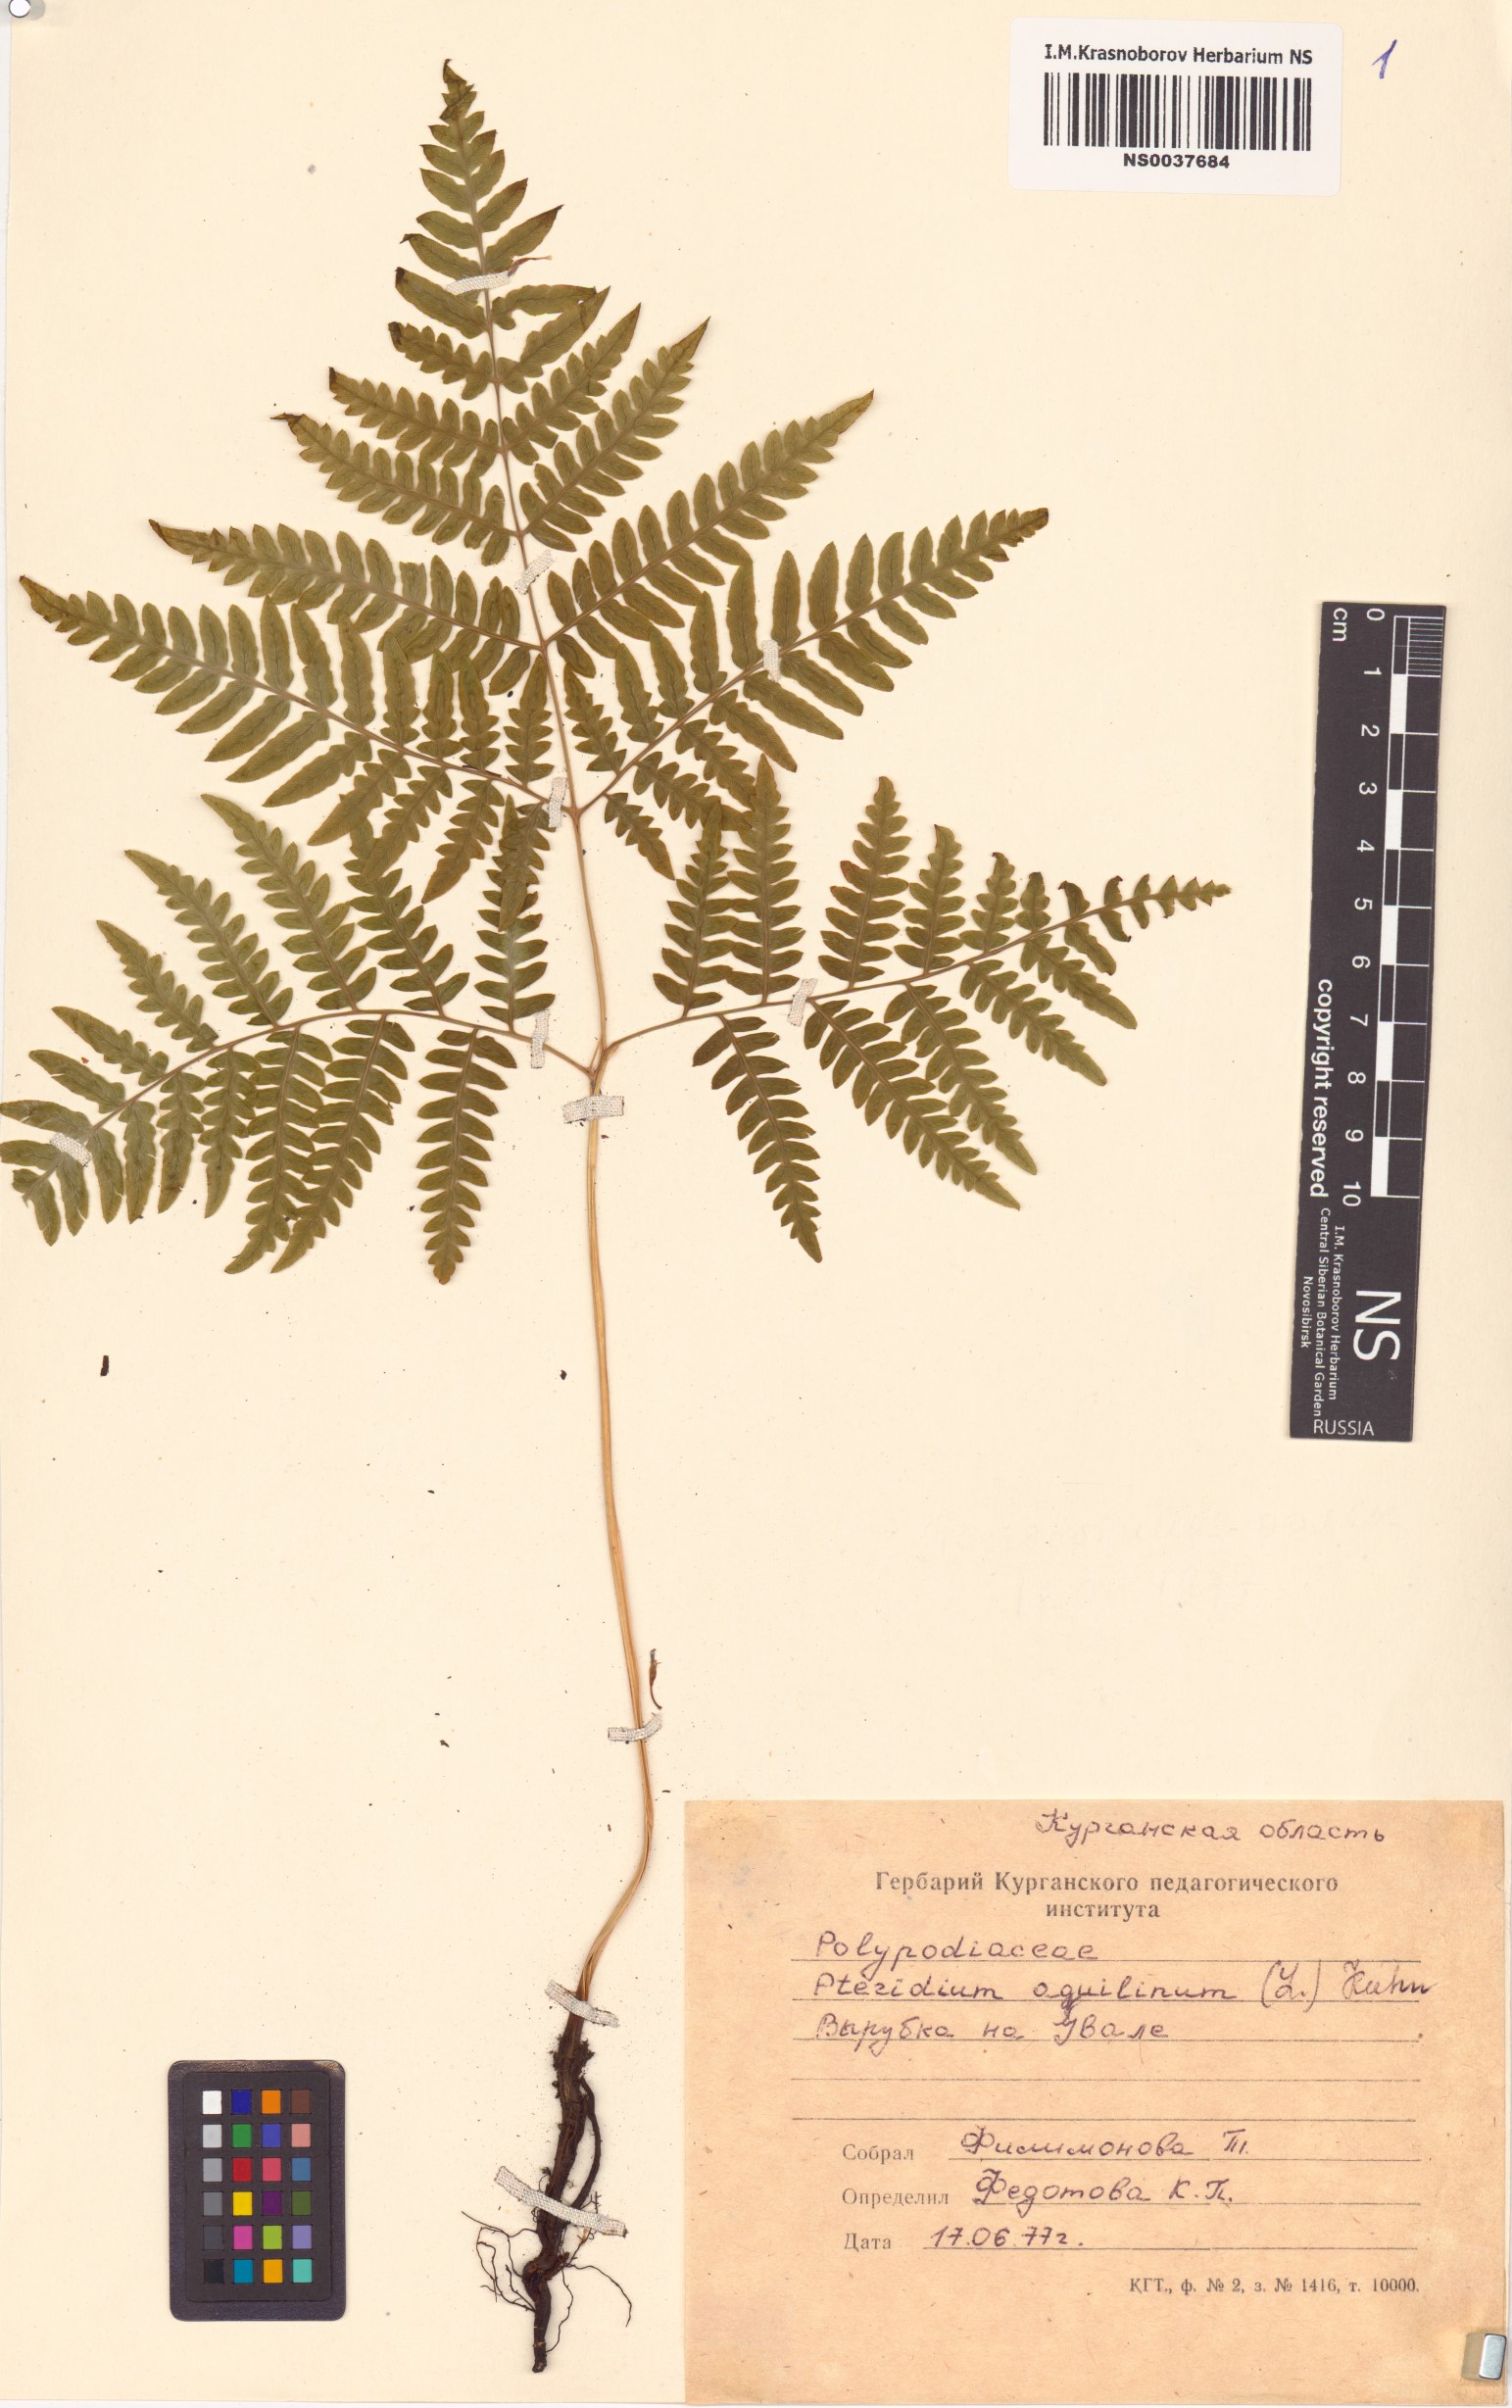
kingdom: Plantae
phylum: Tracheophyta
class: Polypodiopsida
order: Polypodiales
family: Dennstaedtiaceae
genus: Pteridium
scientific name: Pteridium aquilinum
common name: Bracken
